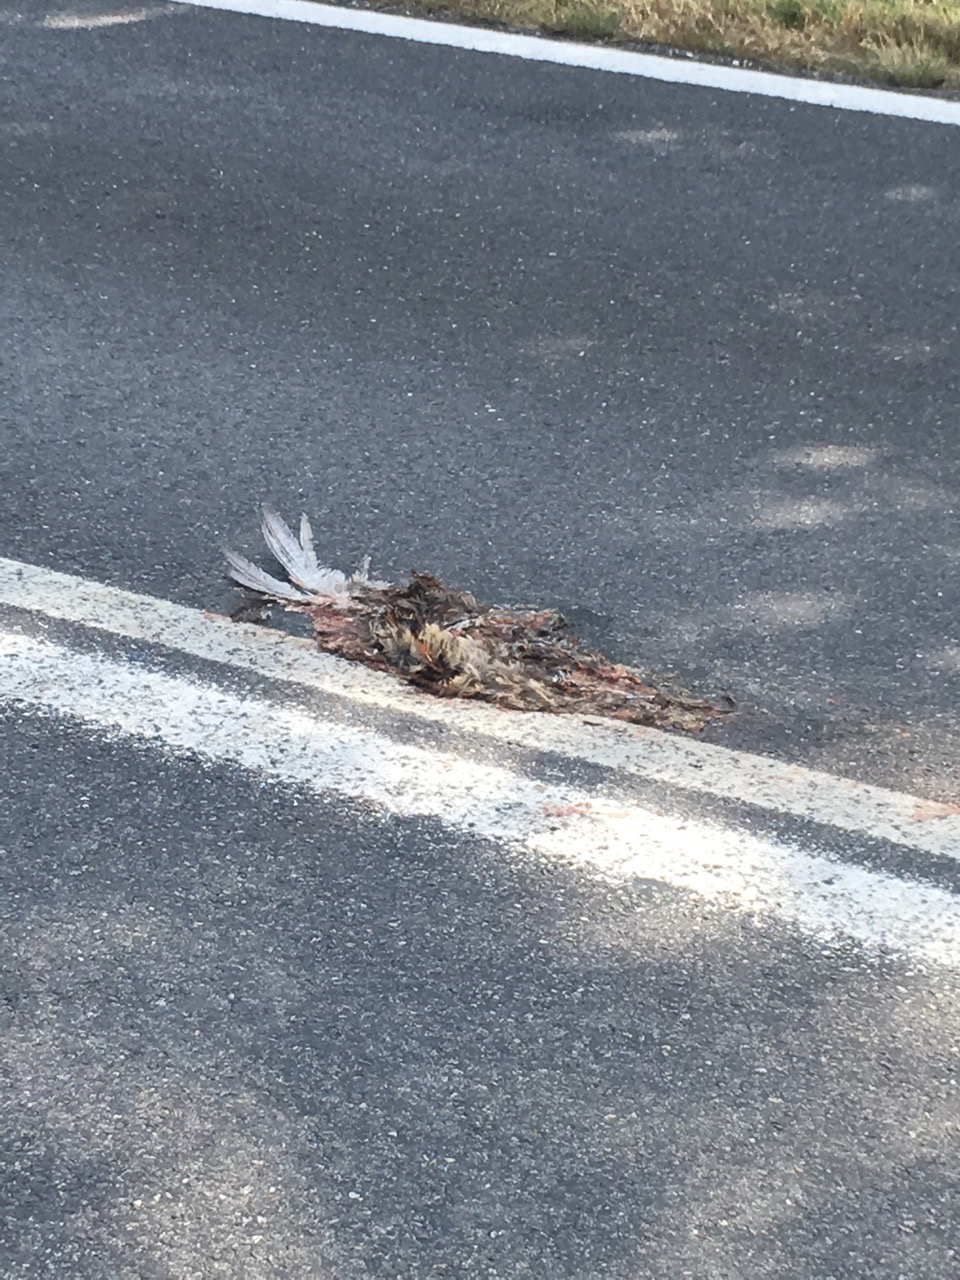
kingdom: Animalia
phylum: Chordata
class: Aves
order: Galliformes
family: Phasianidae
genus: Phasianus
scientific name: Phasianus colchicus
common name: Common pheasant
